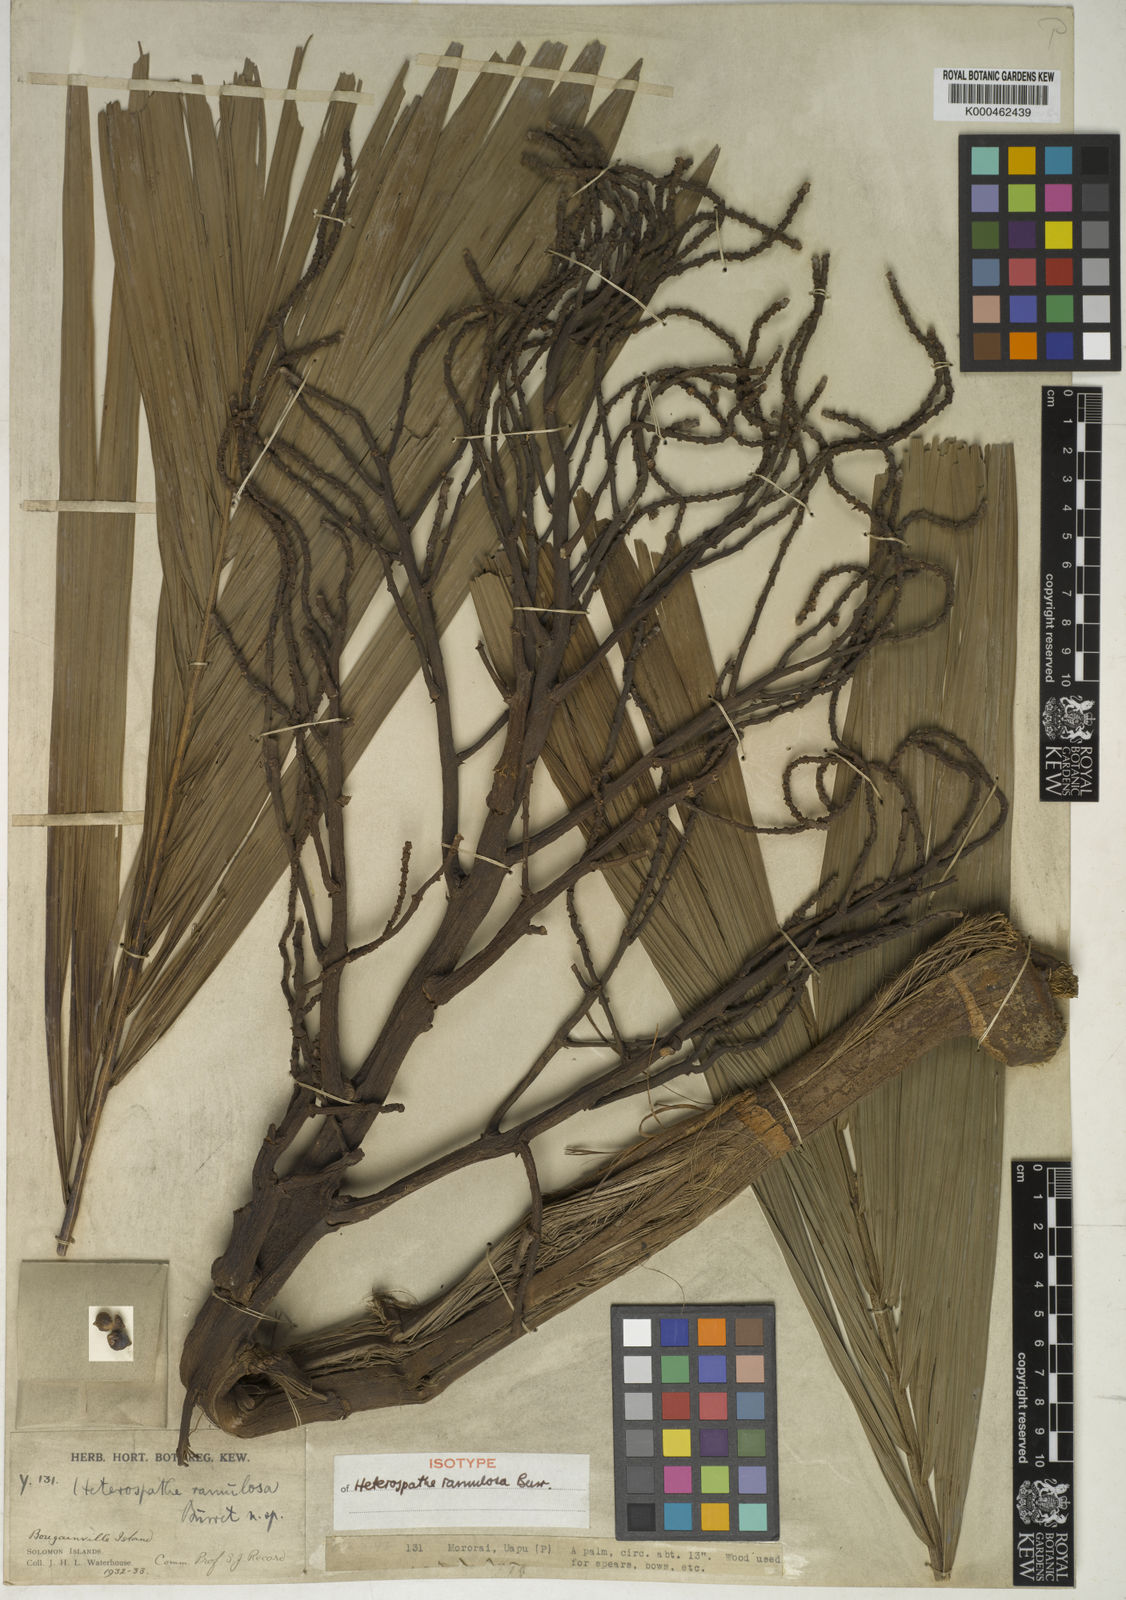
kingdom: Plantae
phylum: Tracheophyta
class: Liliopsida
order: Arecales
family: Arecaceae
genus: Heterospathe
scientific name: Heterospathe ramulosa
